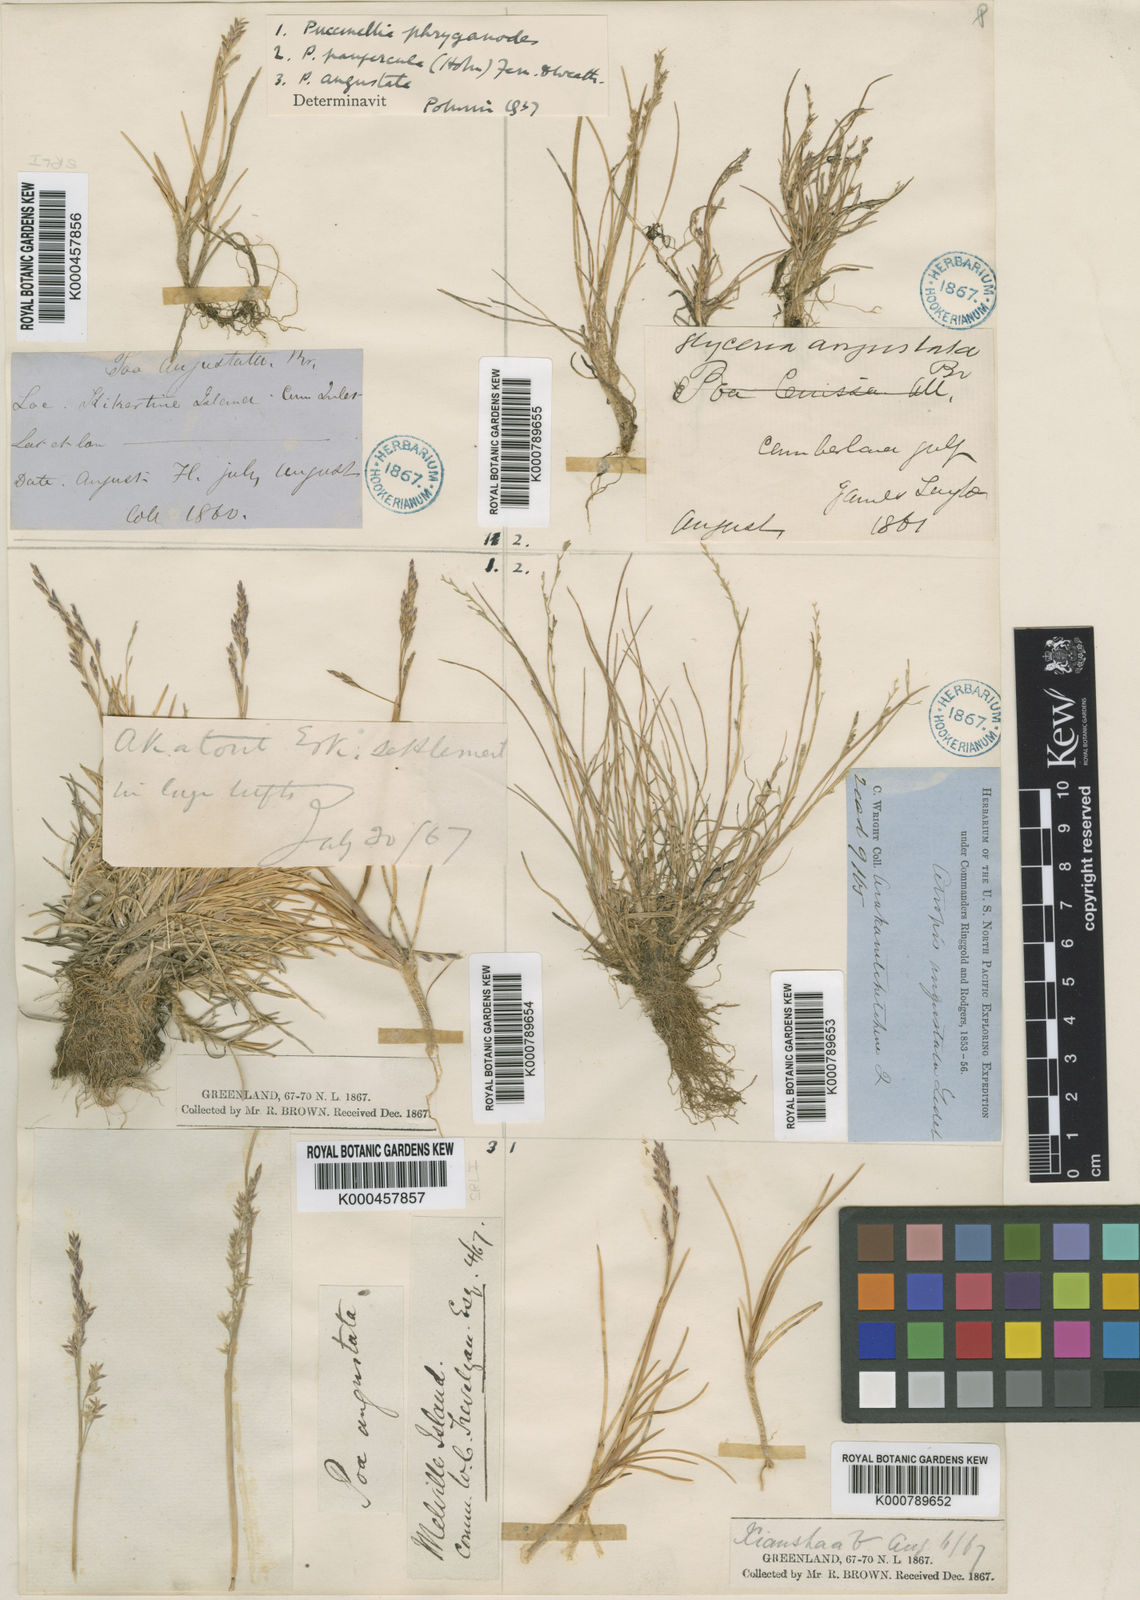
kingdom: Plantae
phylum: Tracheophyta
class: Liliopsida
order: Poales
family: Poaceae
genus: Puccinellia
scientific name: Puccinellia angustata
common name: Narrow alkaligrass
